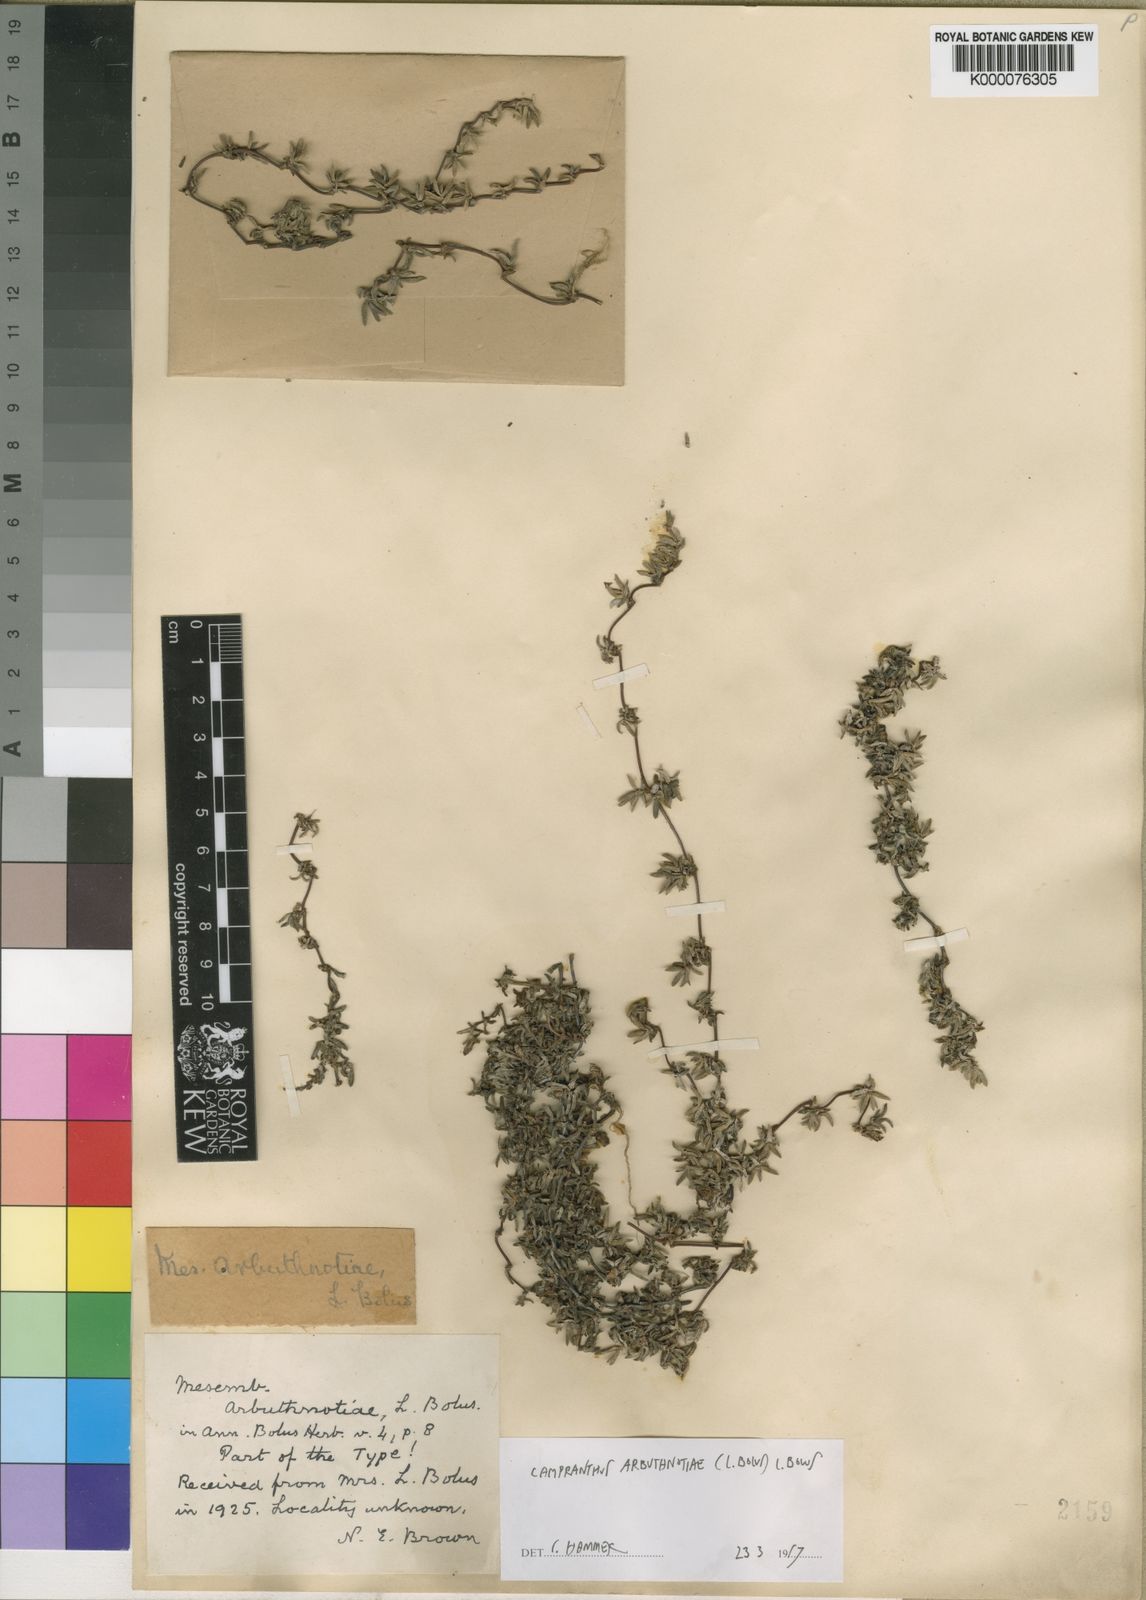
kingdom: Plantae
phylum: Tracheophyta
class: Magnoliopsida
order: Caryophyllales
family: Aizoaceae
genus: Lampranthus
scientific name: Lampranthus arbuthnotiae
